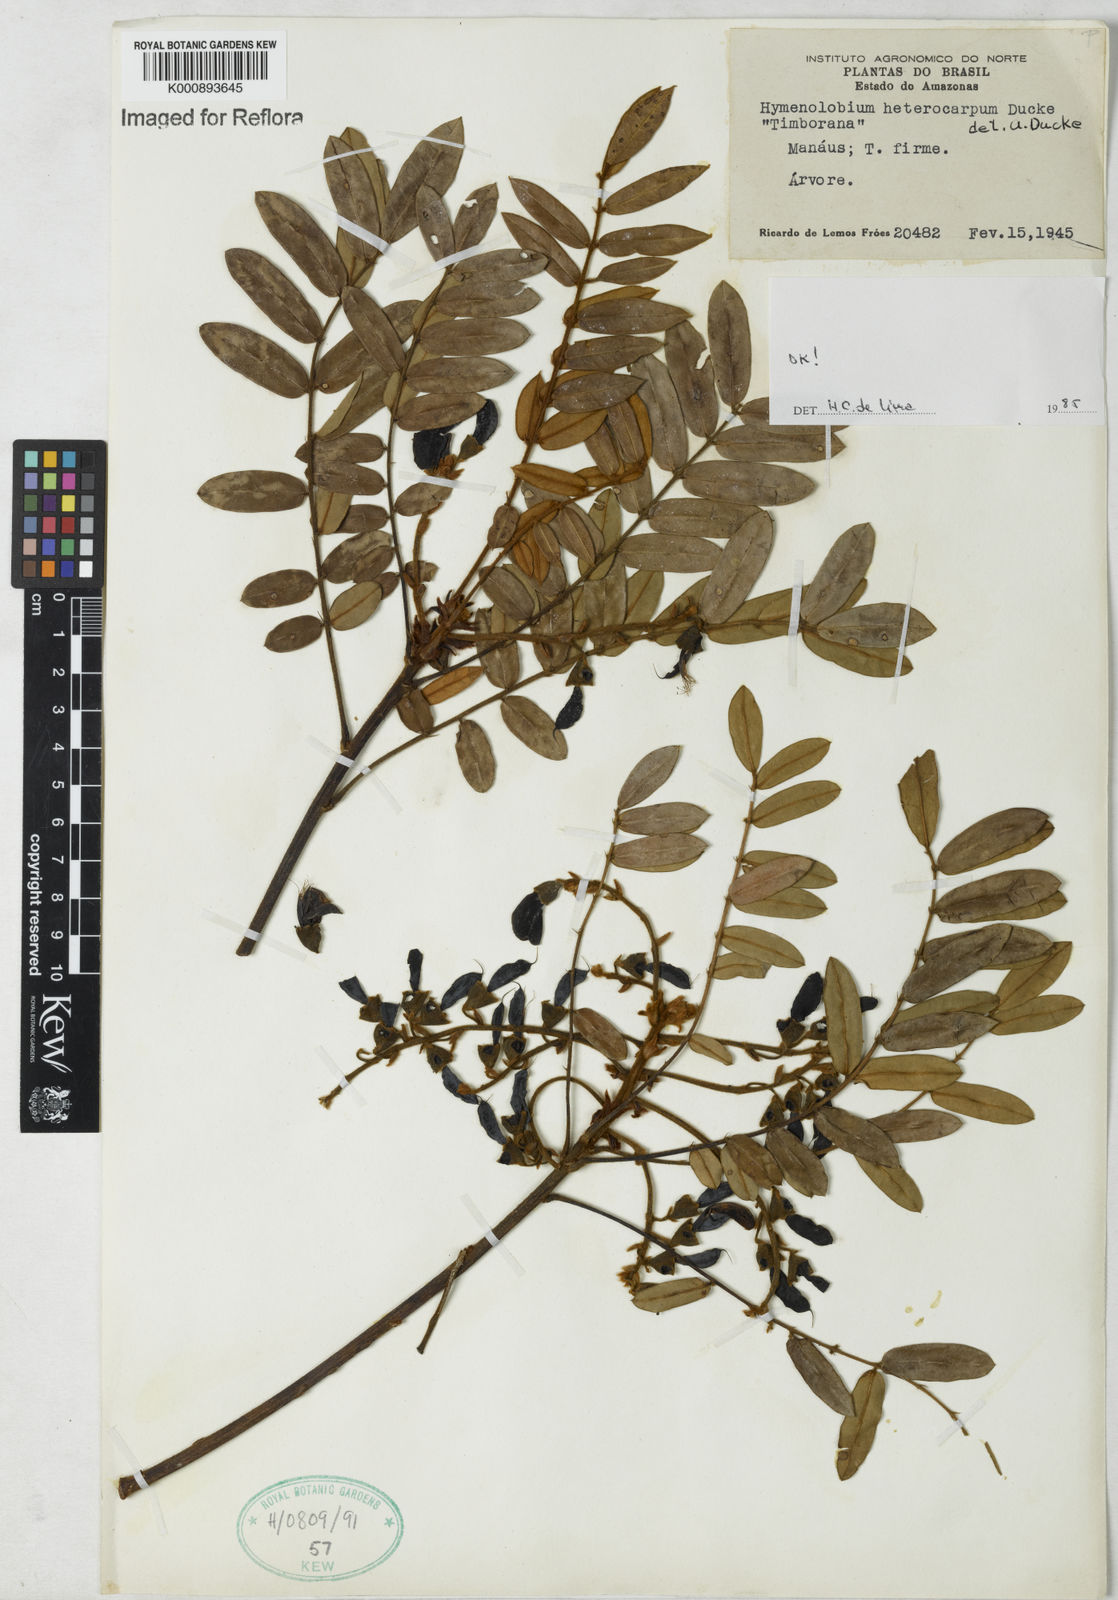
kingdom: Plantae
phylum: Tracheophyta
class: Magnoliopsida
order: Fabales
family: Fabaceae
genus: Hymenolobium
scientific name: Hymenolobium heterocarpum
